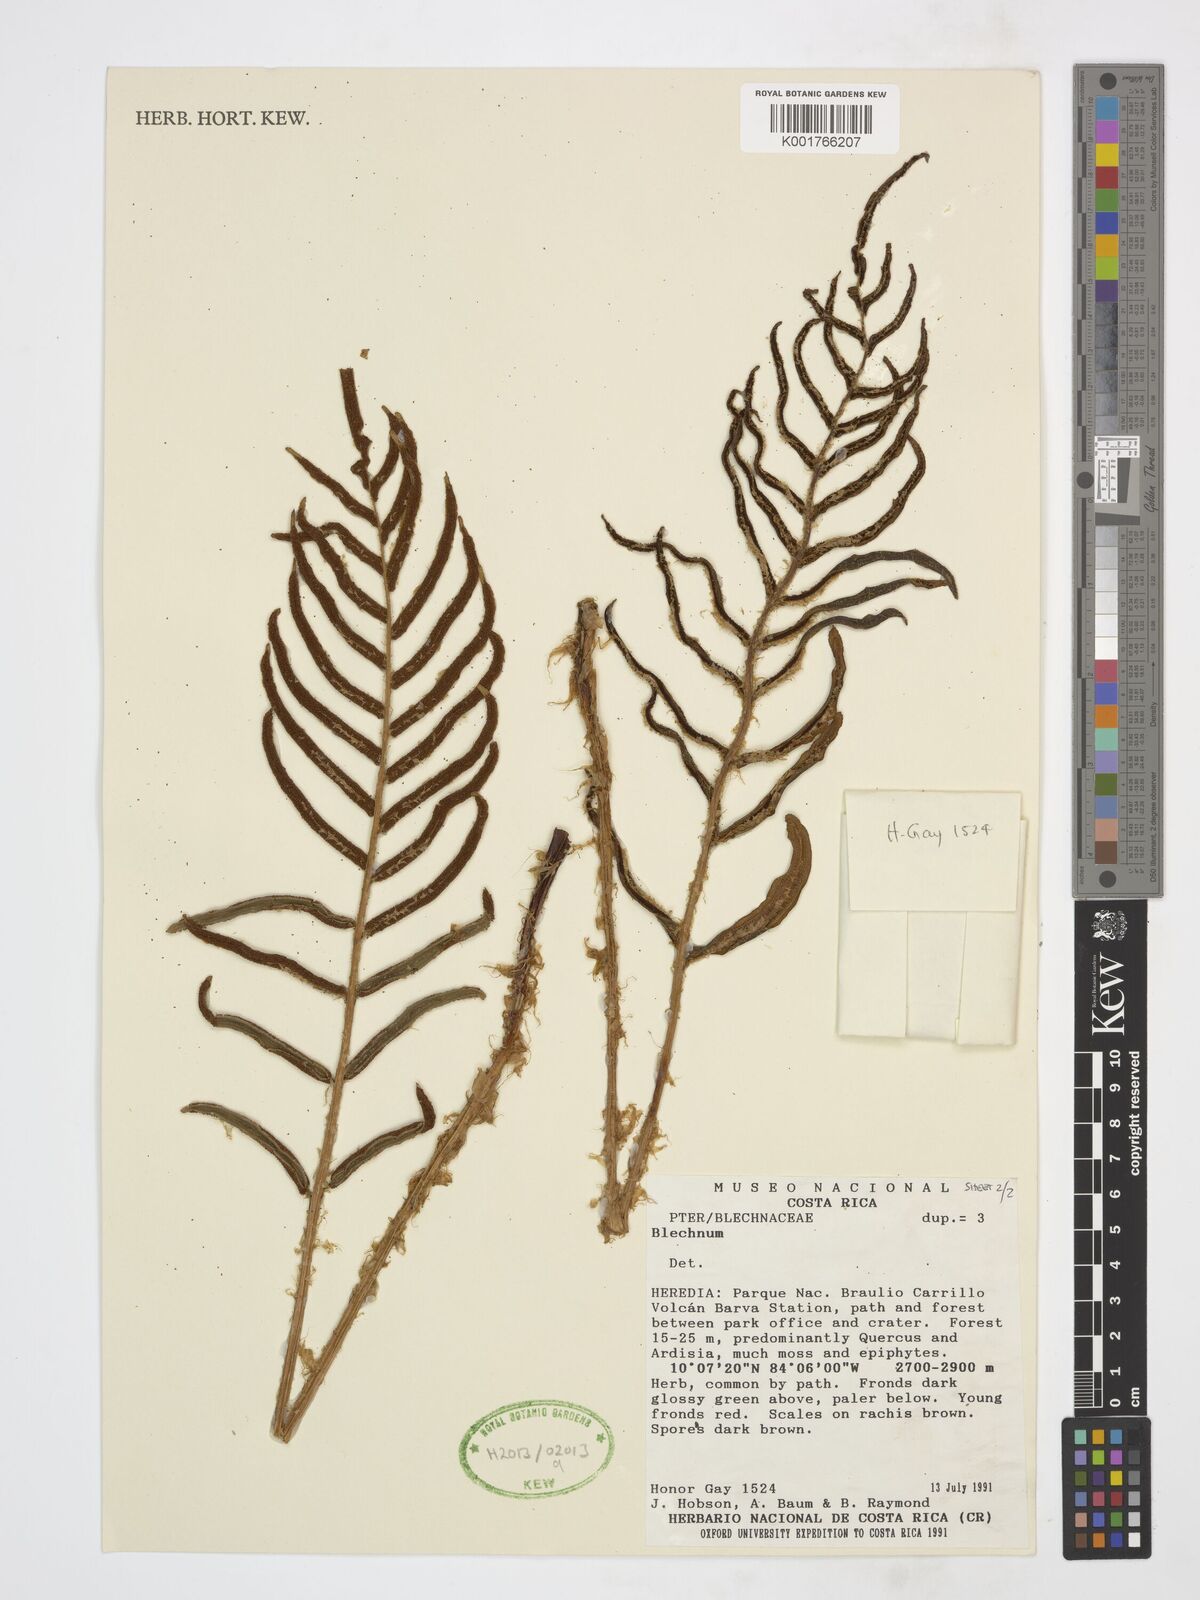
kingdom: Plantae
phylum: Tracheophyta
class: Polypodiopsida
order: Polypodiales
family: Blechnaceae
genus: Parablechnum
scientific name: Parablechnum
